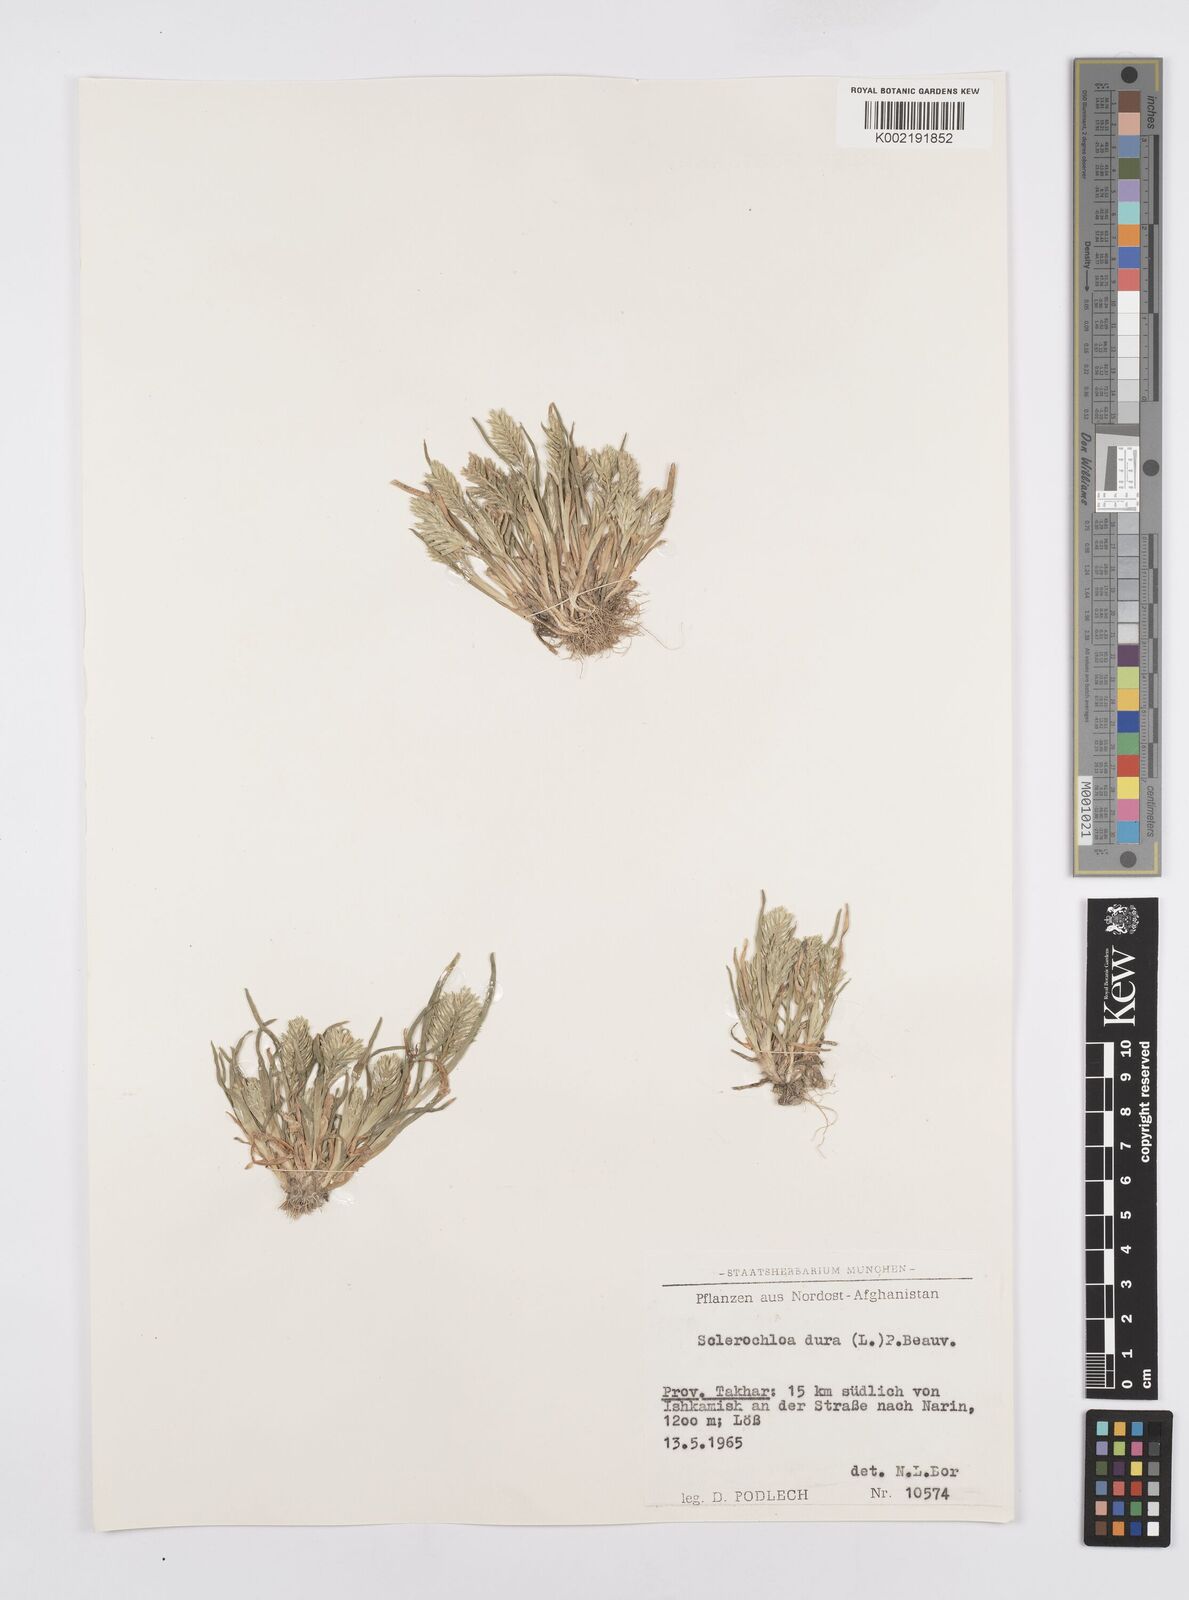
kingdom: Plantae
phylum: Tracheophyta
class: Liliopsida
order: Poales
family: Poaceae
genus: Sclerochloa
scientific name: Sclerochloa dura
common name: Common hardgrass
